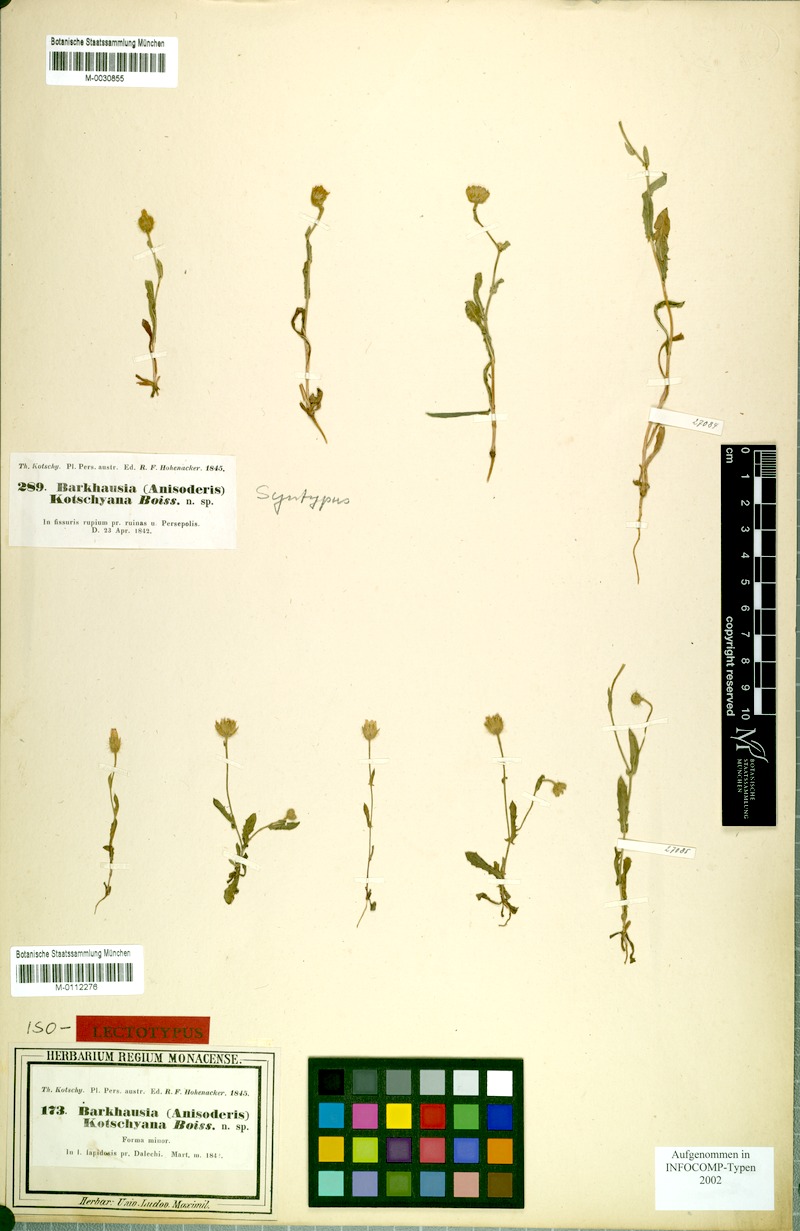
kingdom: Plantae
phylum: Tracheophyta
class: Magnoliopsida
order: Asterales
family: Asteraceae
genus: Crepis
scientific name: Crepis kotschyana
